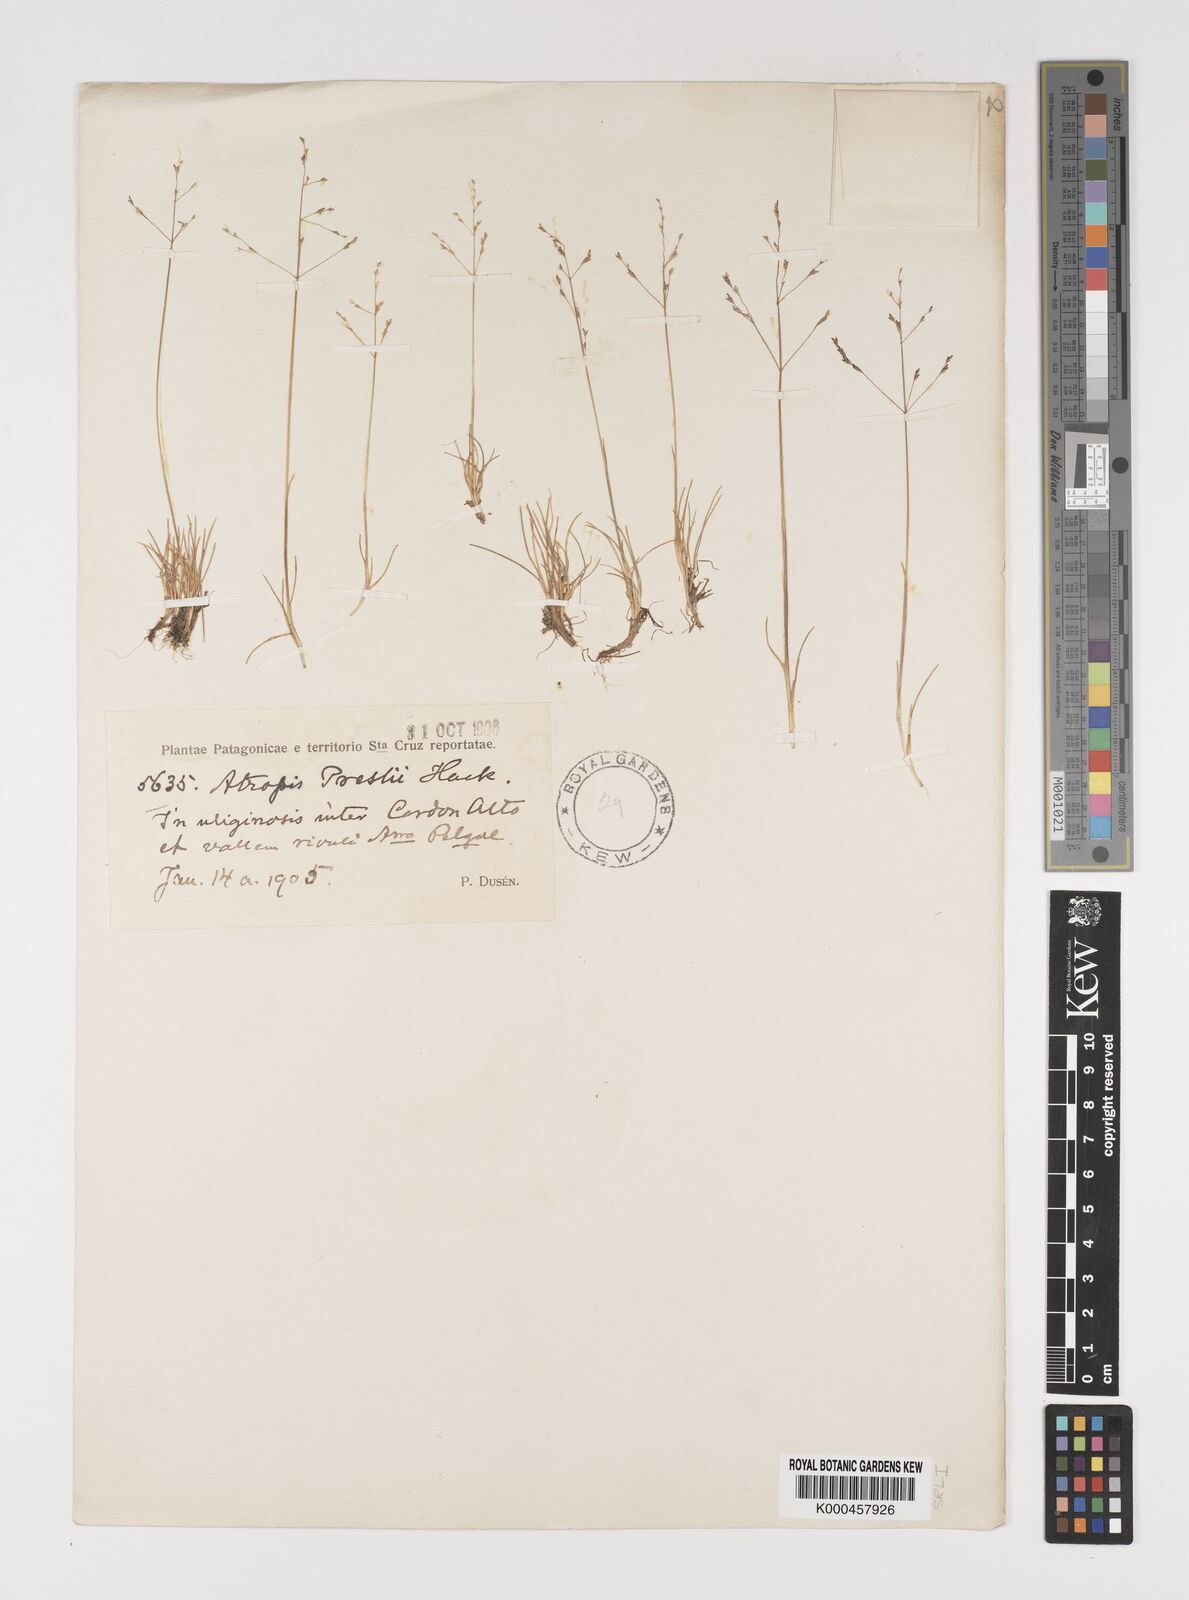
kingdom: Plantae
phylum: Tracheophyta
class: Liliopsida
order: Poales
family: Poaceae
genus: Puccinellia
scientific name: Puccinellia pusilla
